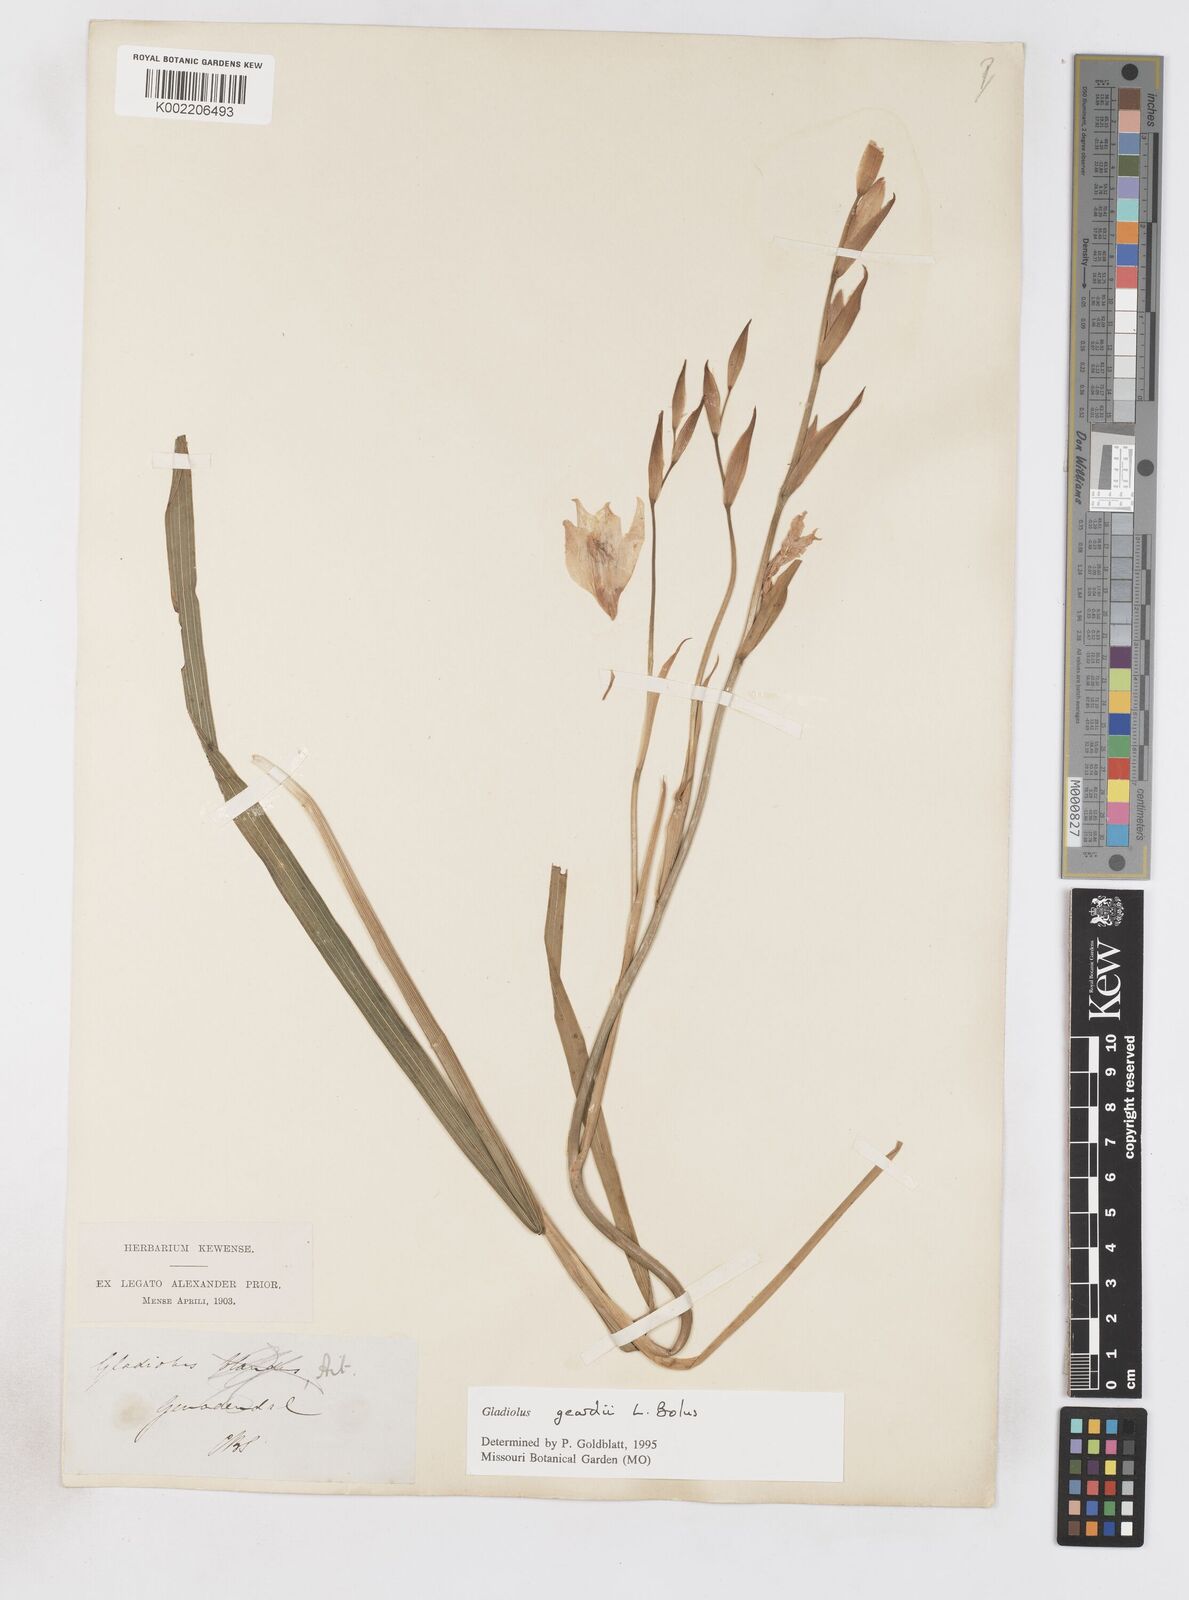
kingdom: Plantae
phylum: Tracheophyta
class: Liliopsida
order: Asparagales
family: Iridaceae
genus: Gladiolus
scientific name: Gladiolus geardii
